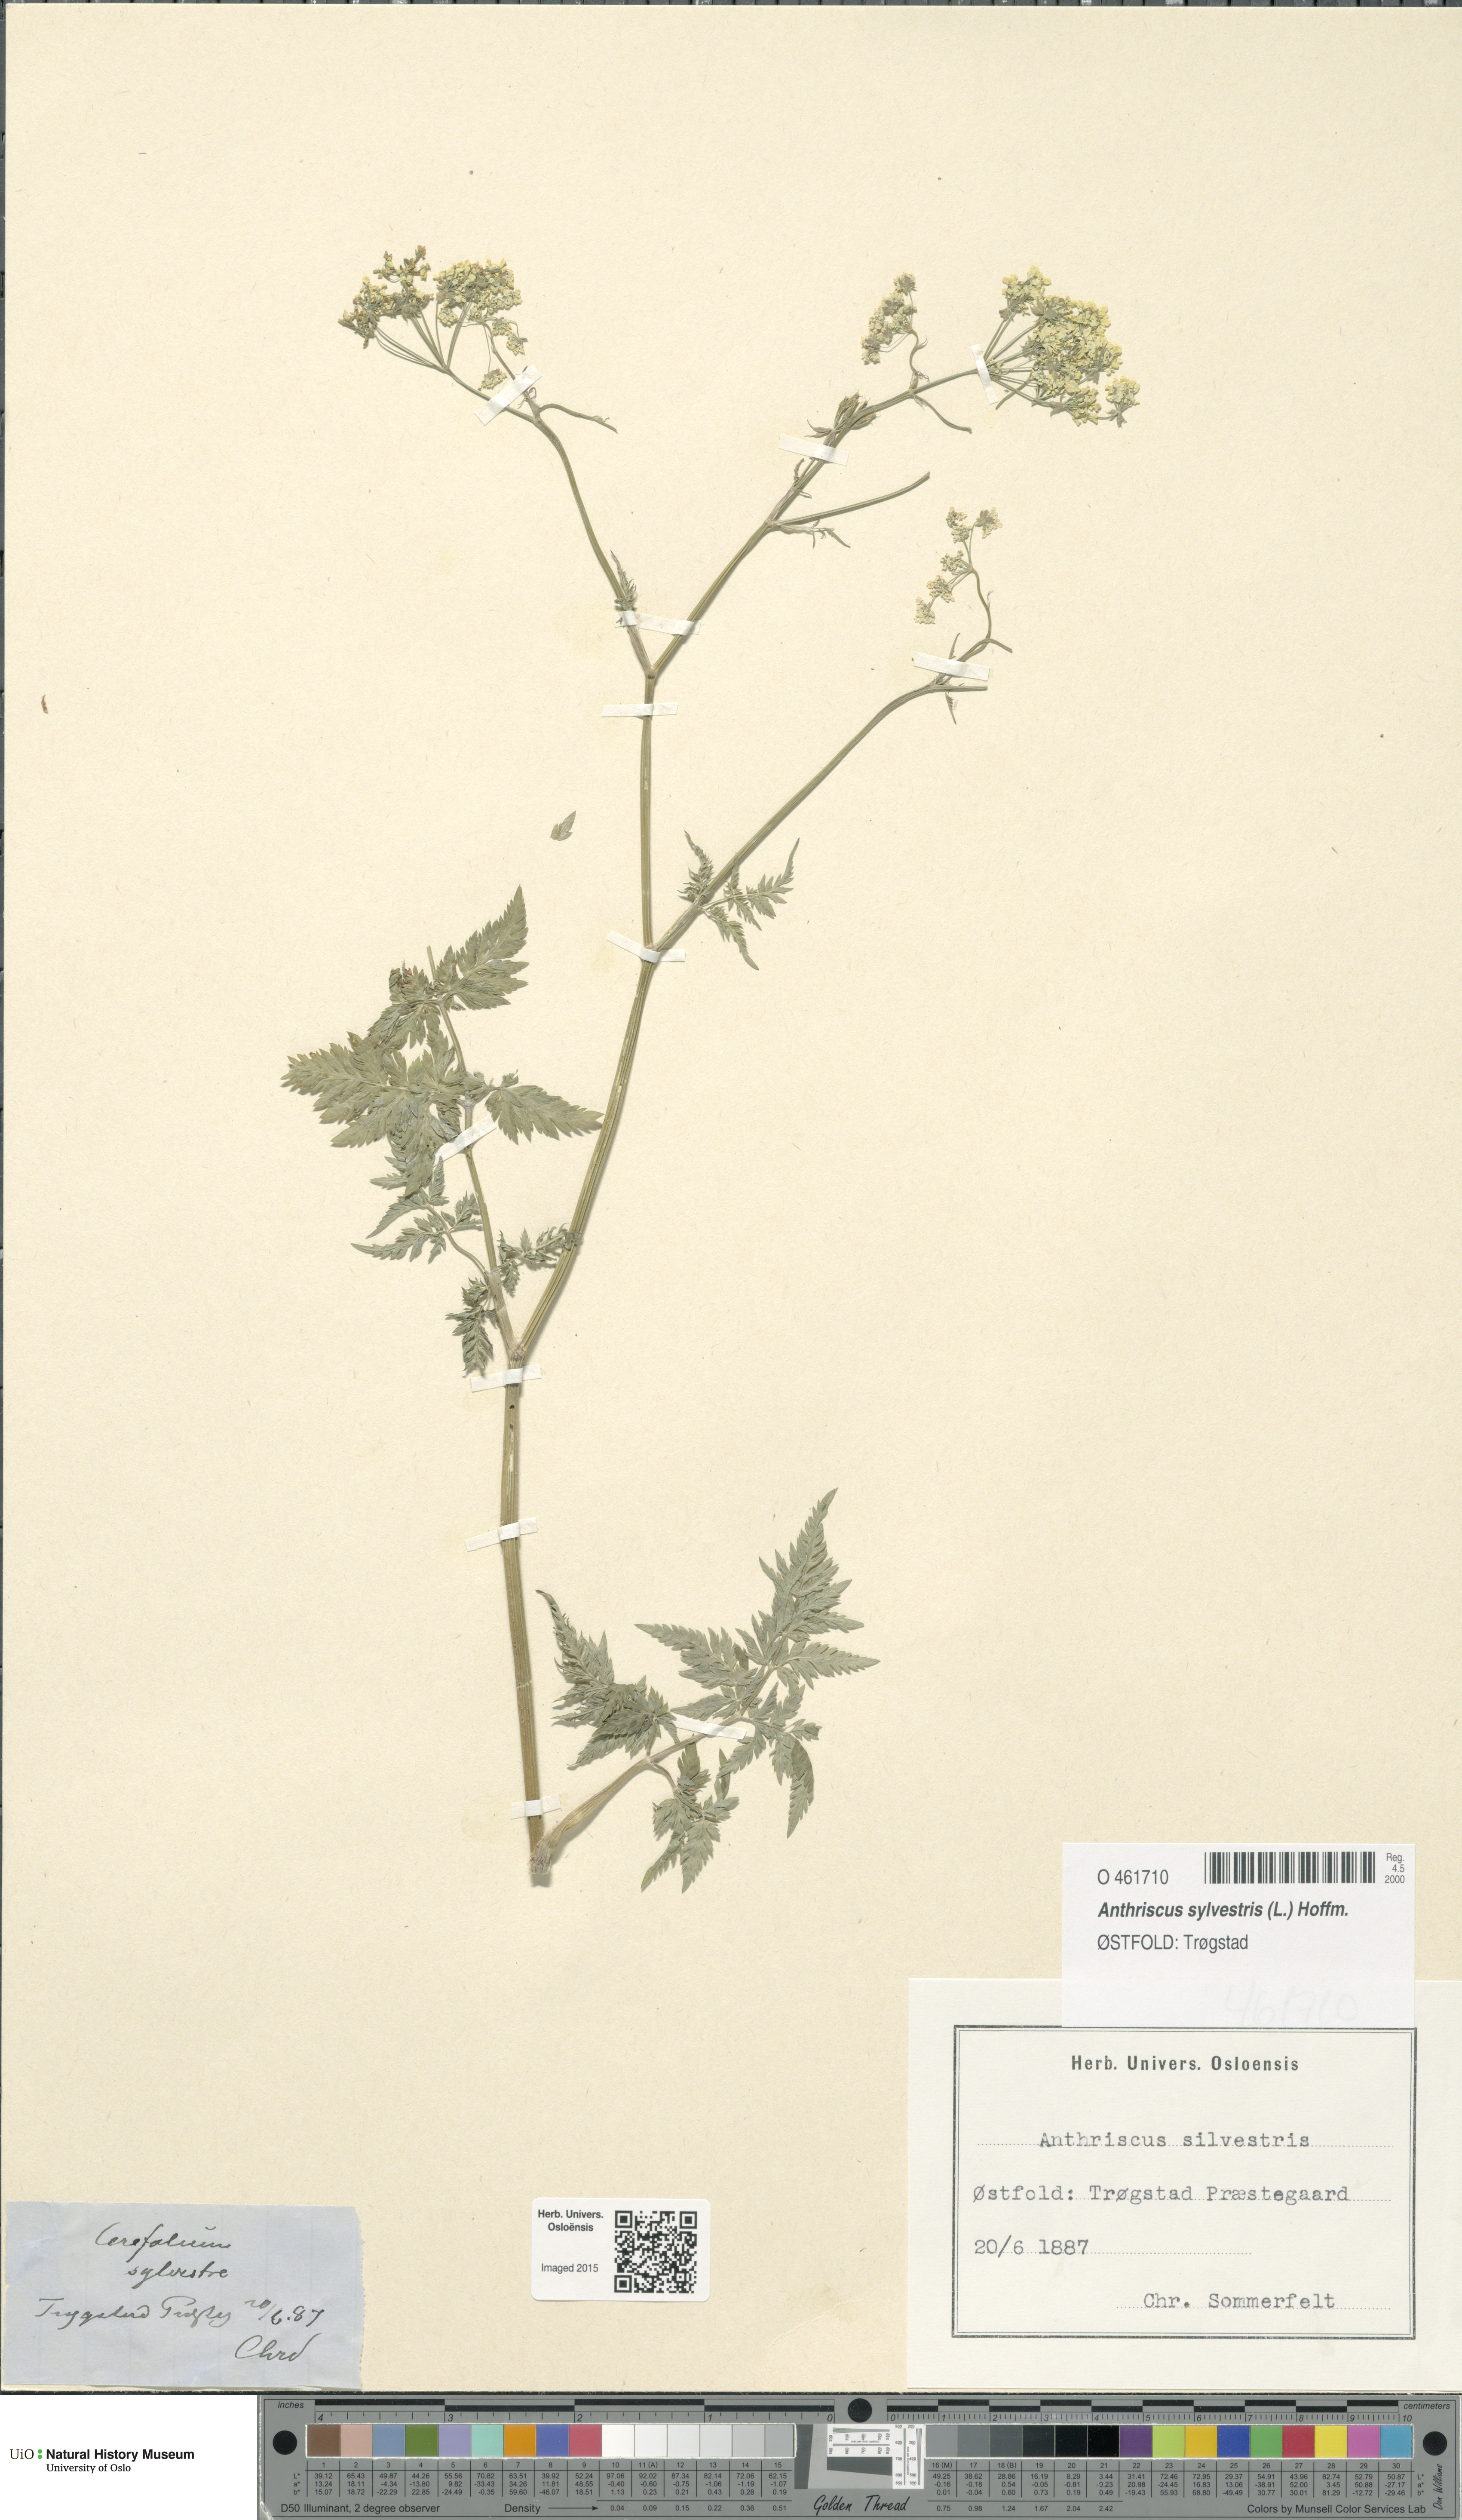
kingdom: Plantae
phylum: Tracheophyta
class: Magnoliopsida
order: Apiales
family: Apiaceae
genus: Anthriscus
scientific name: Anthriscus sylvestris
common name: Cow parsley
